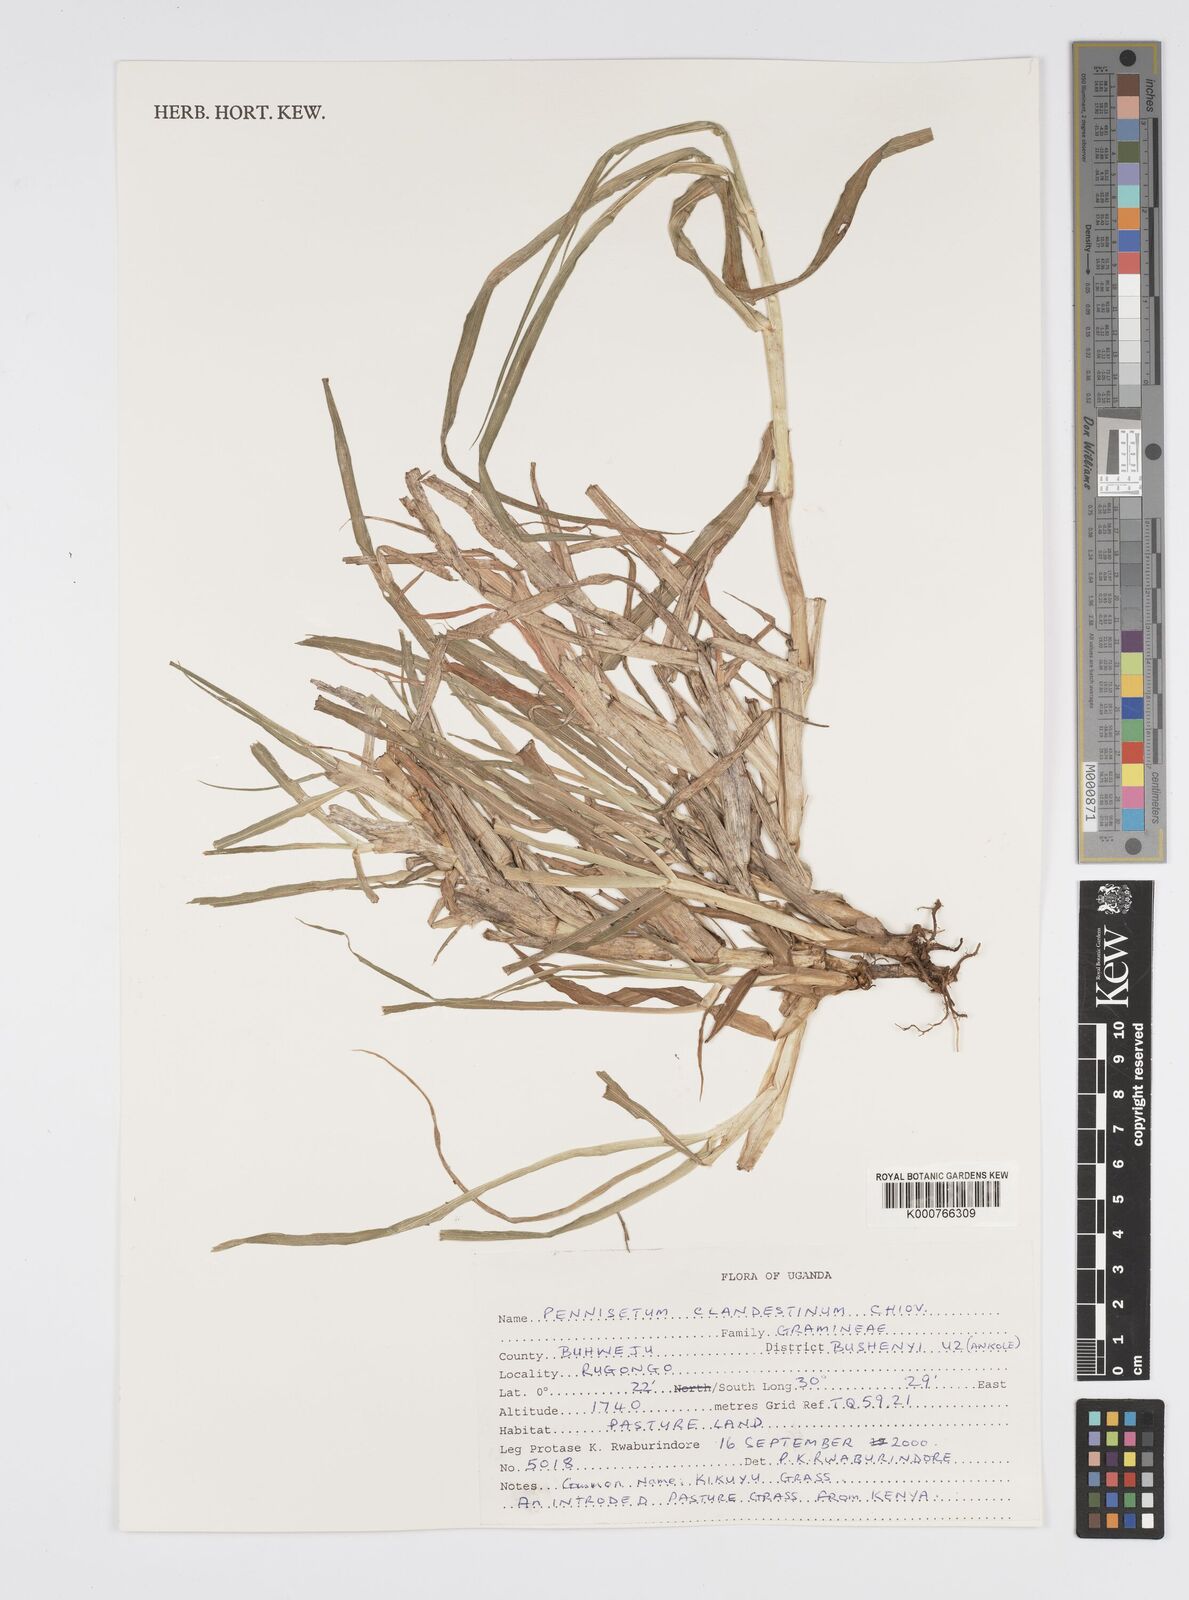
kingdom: Plantae
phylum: Tracheophyta
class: Liliopsida
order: Poales
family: Poaceae
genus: Cenchrus
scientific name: Cenchrus clandestinus
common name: Kikuyugrass
